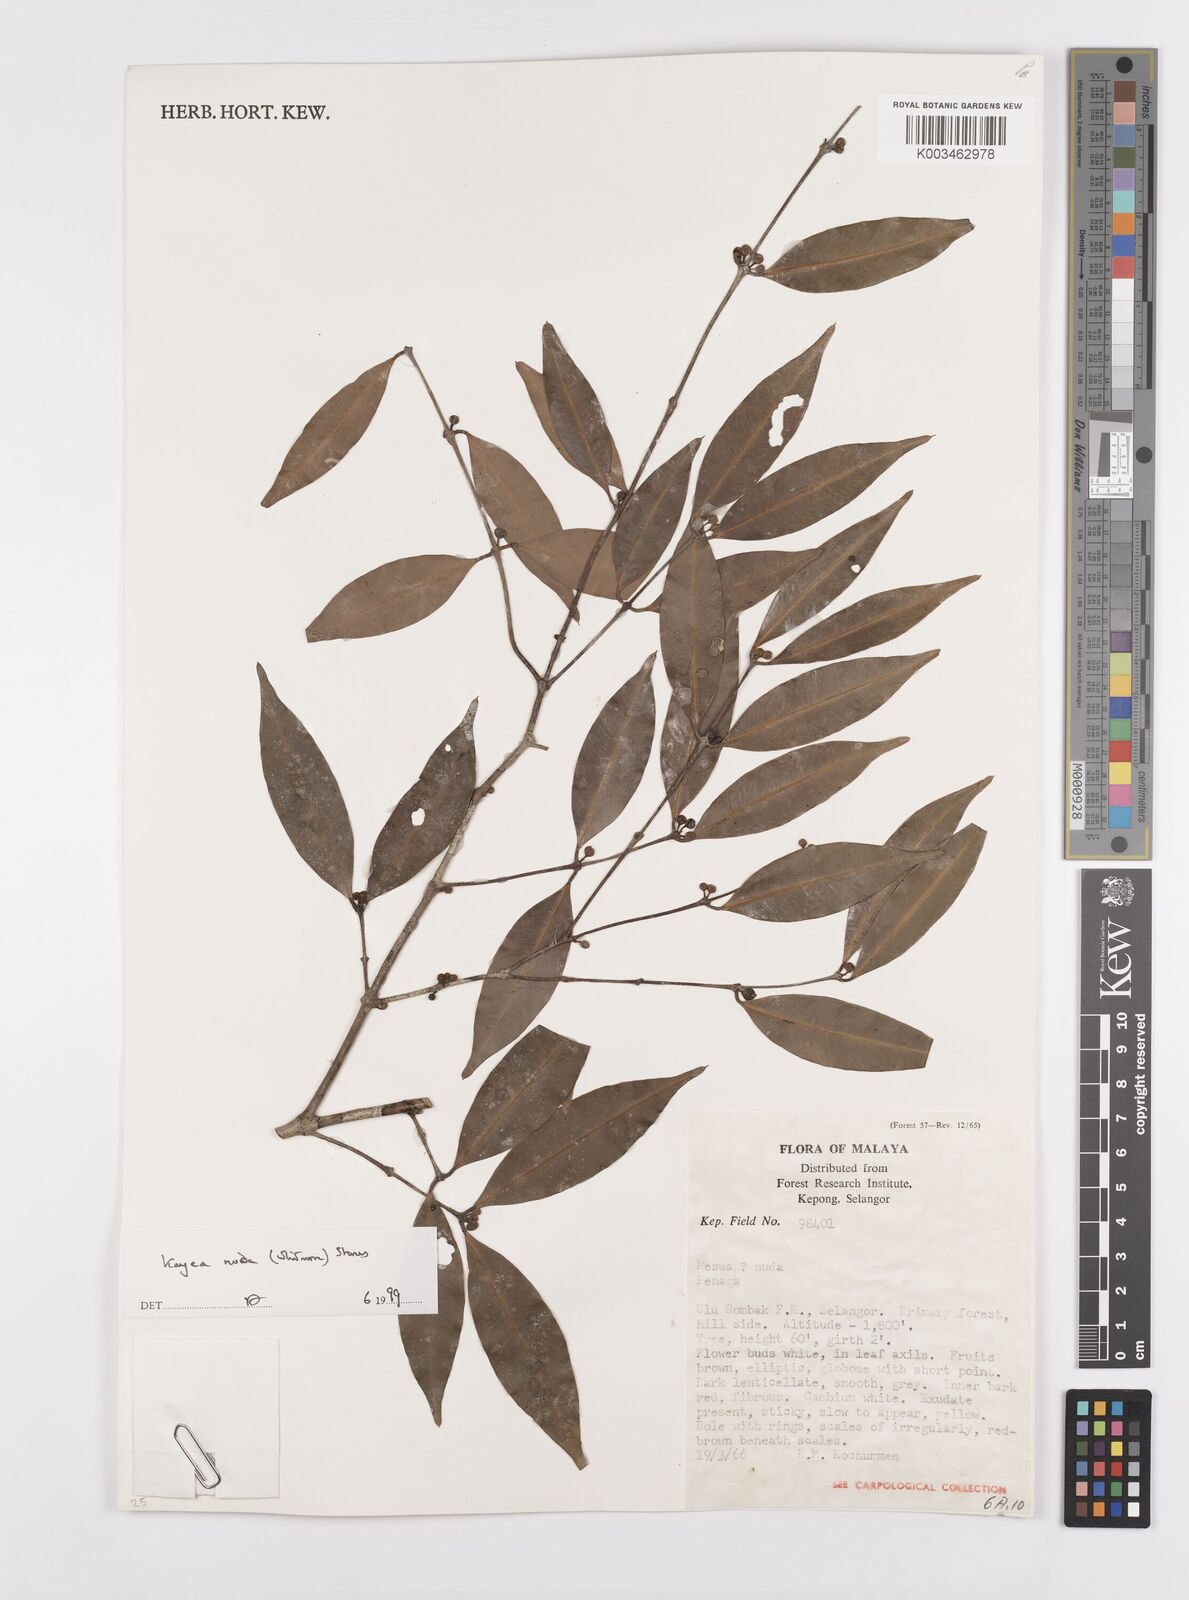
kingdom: Plantae
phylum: Tracheophyta
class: Magnoliopsida
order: Malpighiales
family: Calophyllaceae
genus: Kayea
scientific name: Kayea
